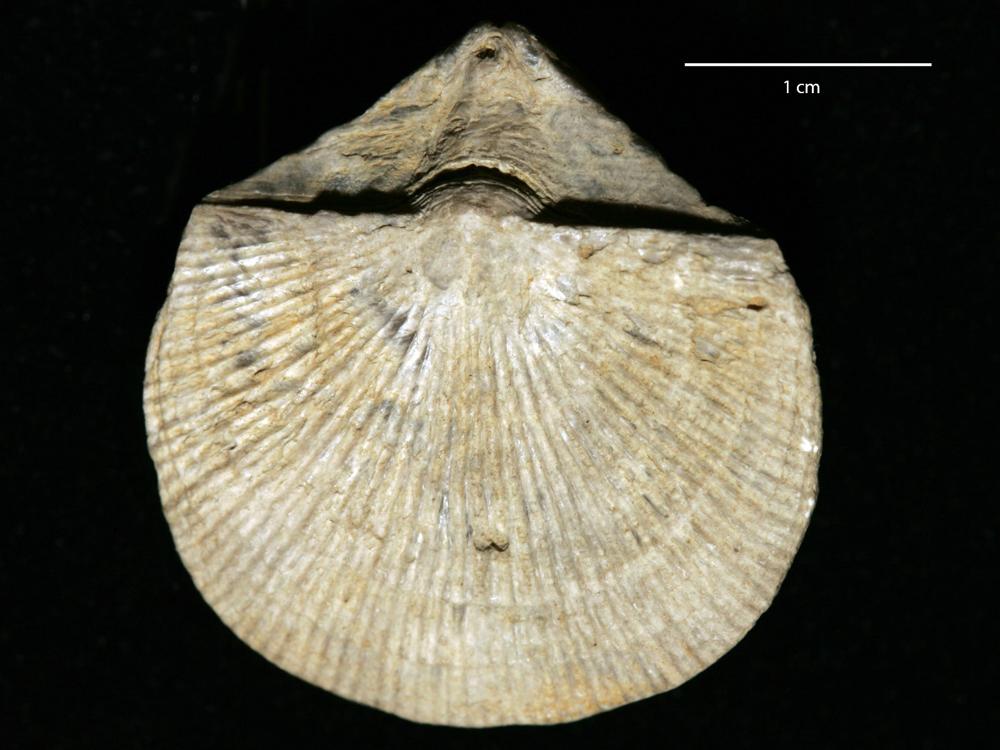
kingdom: Animalia
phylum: Brachiopoda
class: Rhynchonellata
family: Clitambonitidae
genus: Vellamo
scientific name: Vellamo Orthis verneuili
